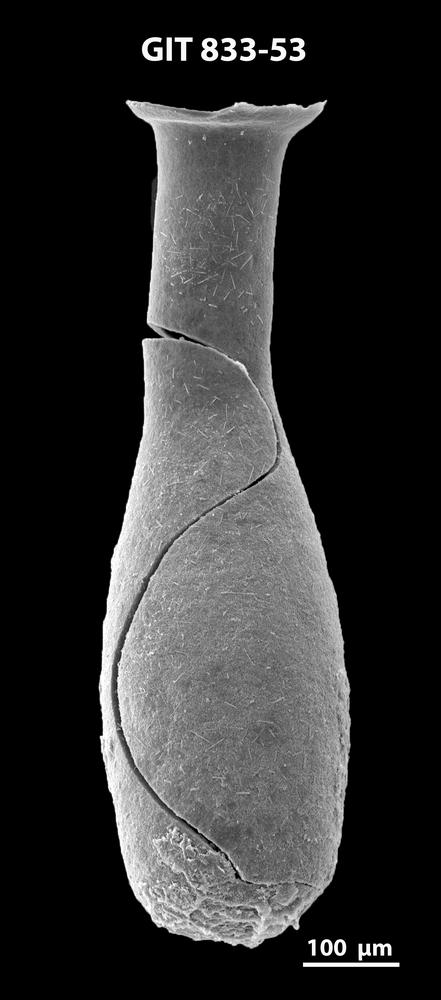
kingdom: Animalia
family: Lagenochitinidae
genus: Lagenochitina
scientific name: Lagenochitina megaesthonica
